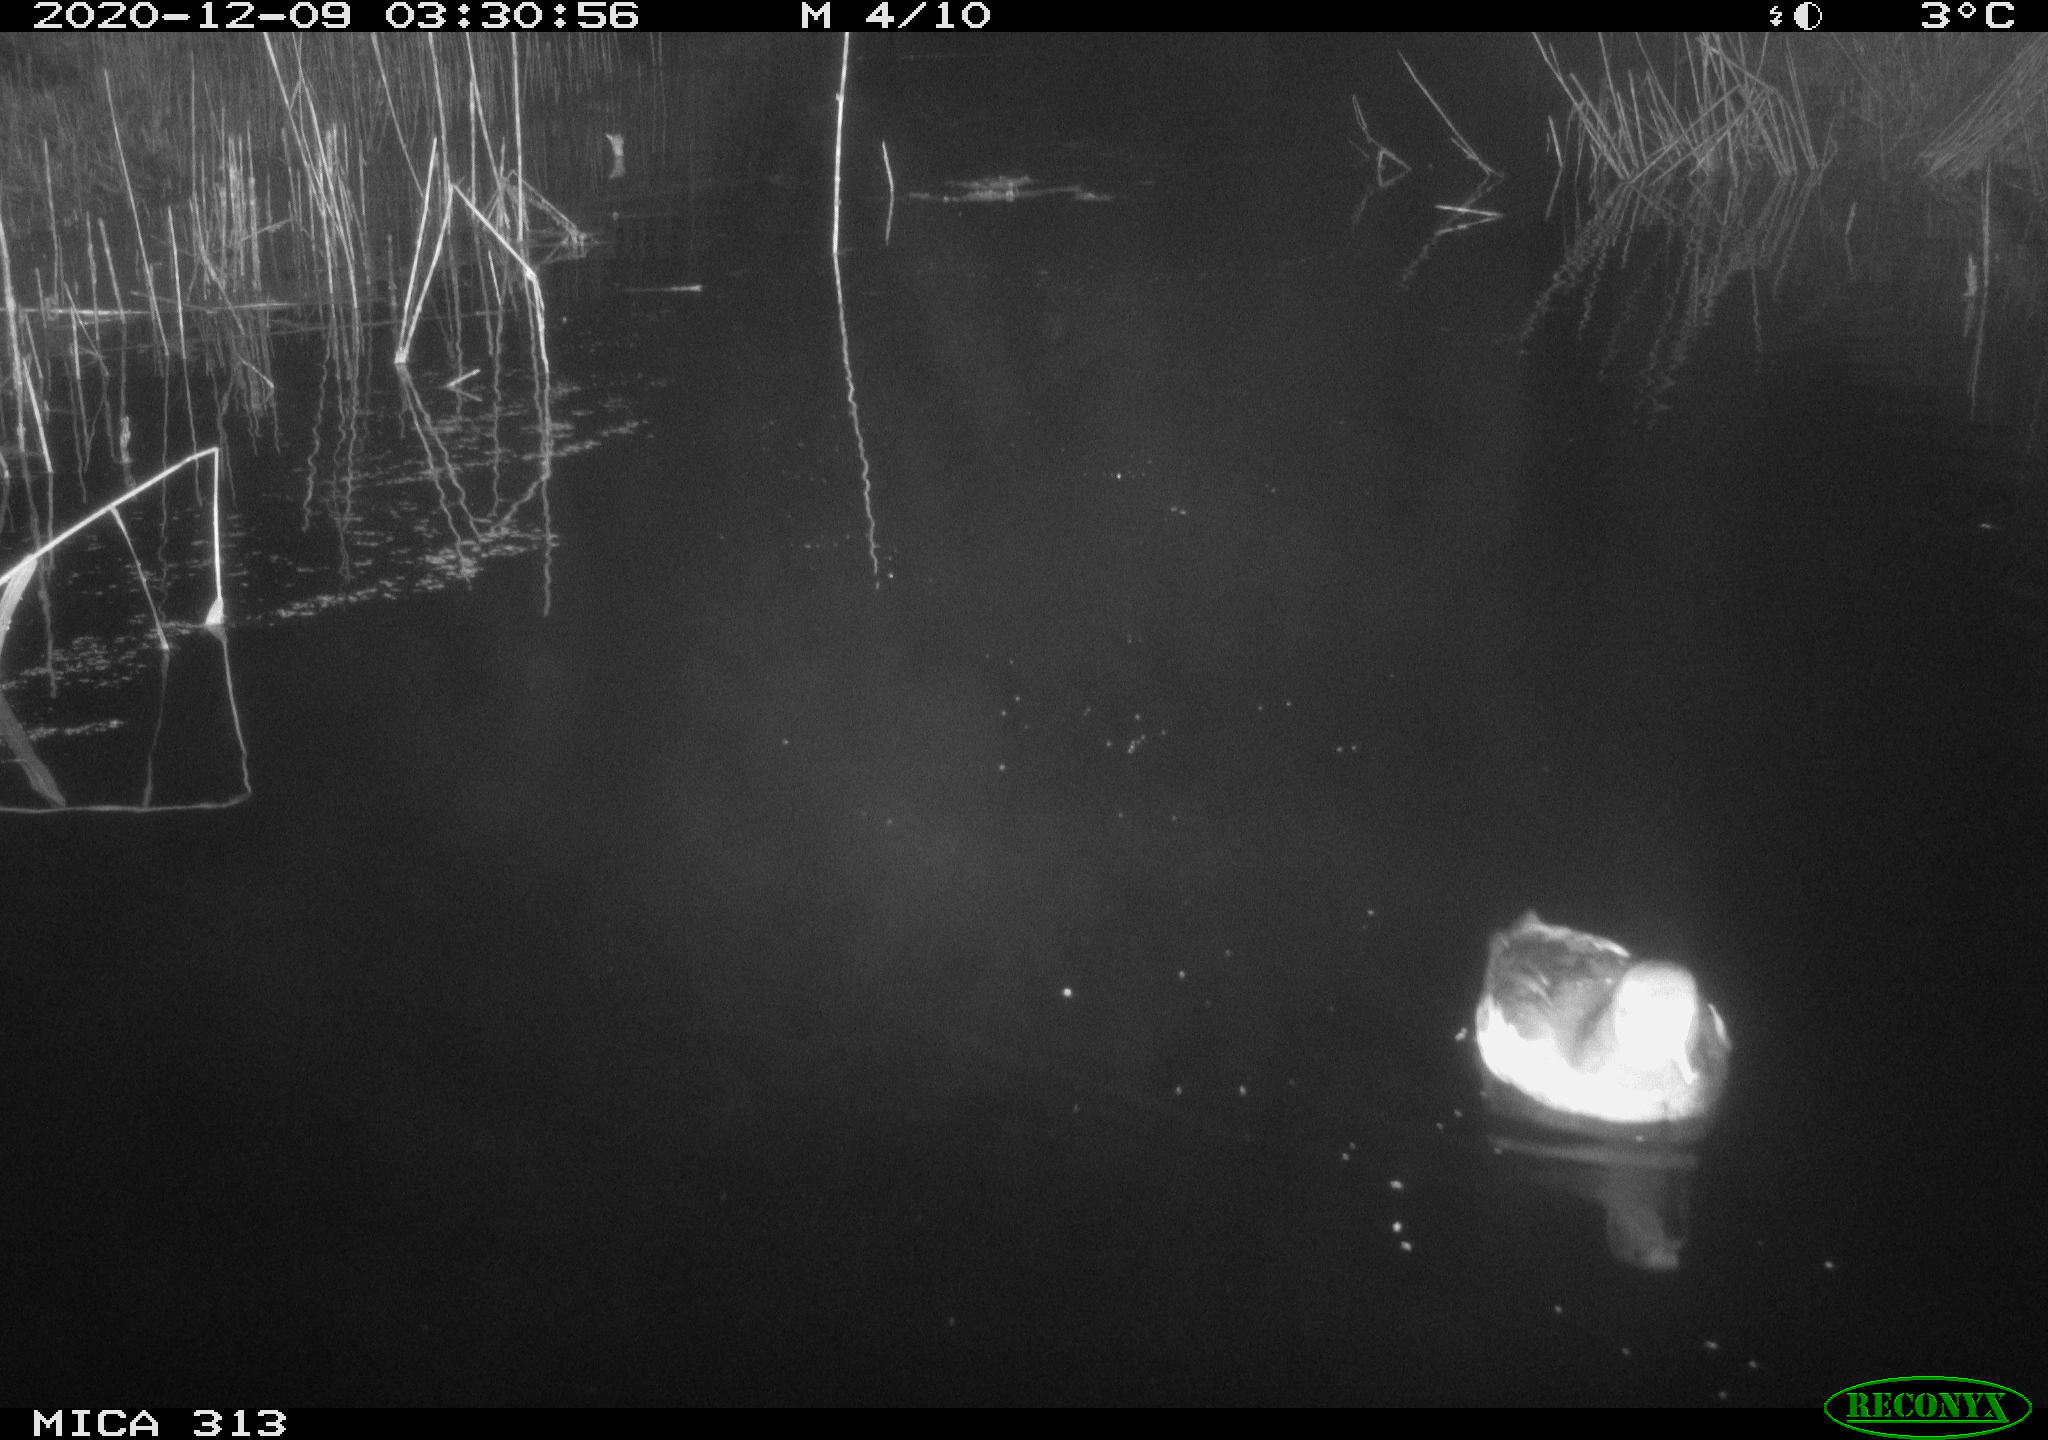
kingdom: Animalia
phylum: Chordata
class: Aves
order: Anseriformes
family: Anatidae
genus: Anas
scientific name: Anas platyrhynchos
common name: Mallard
